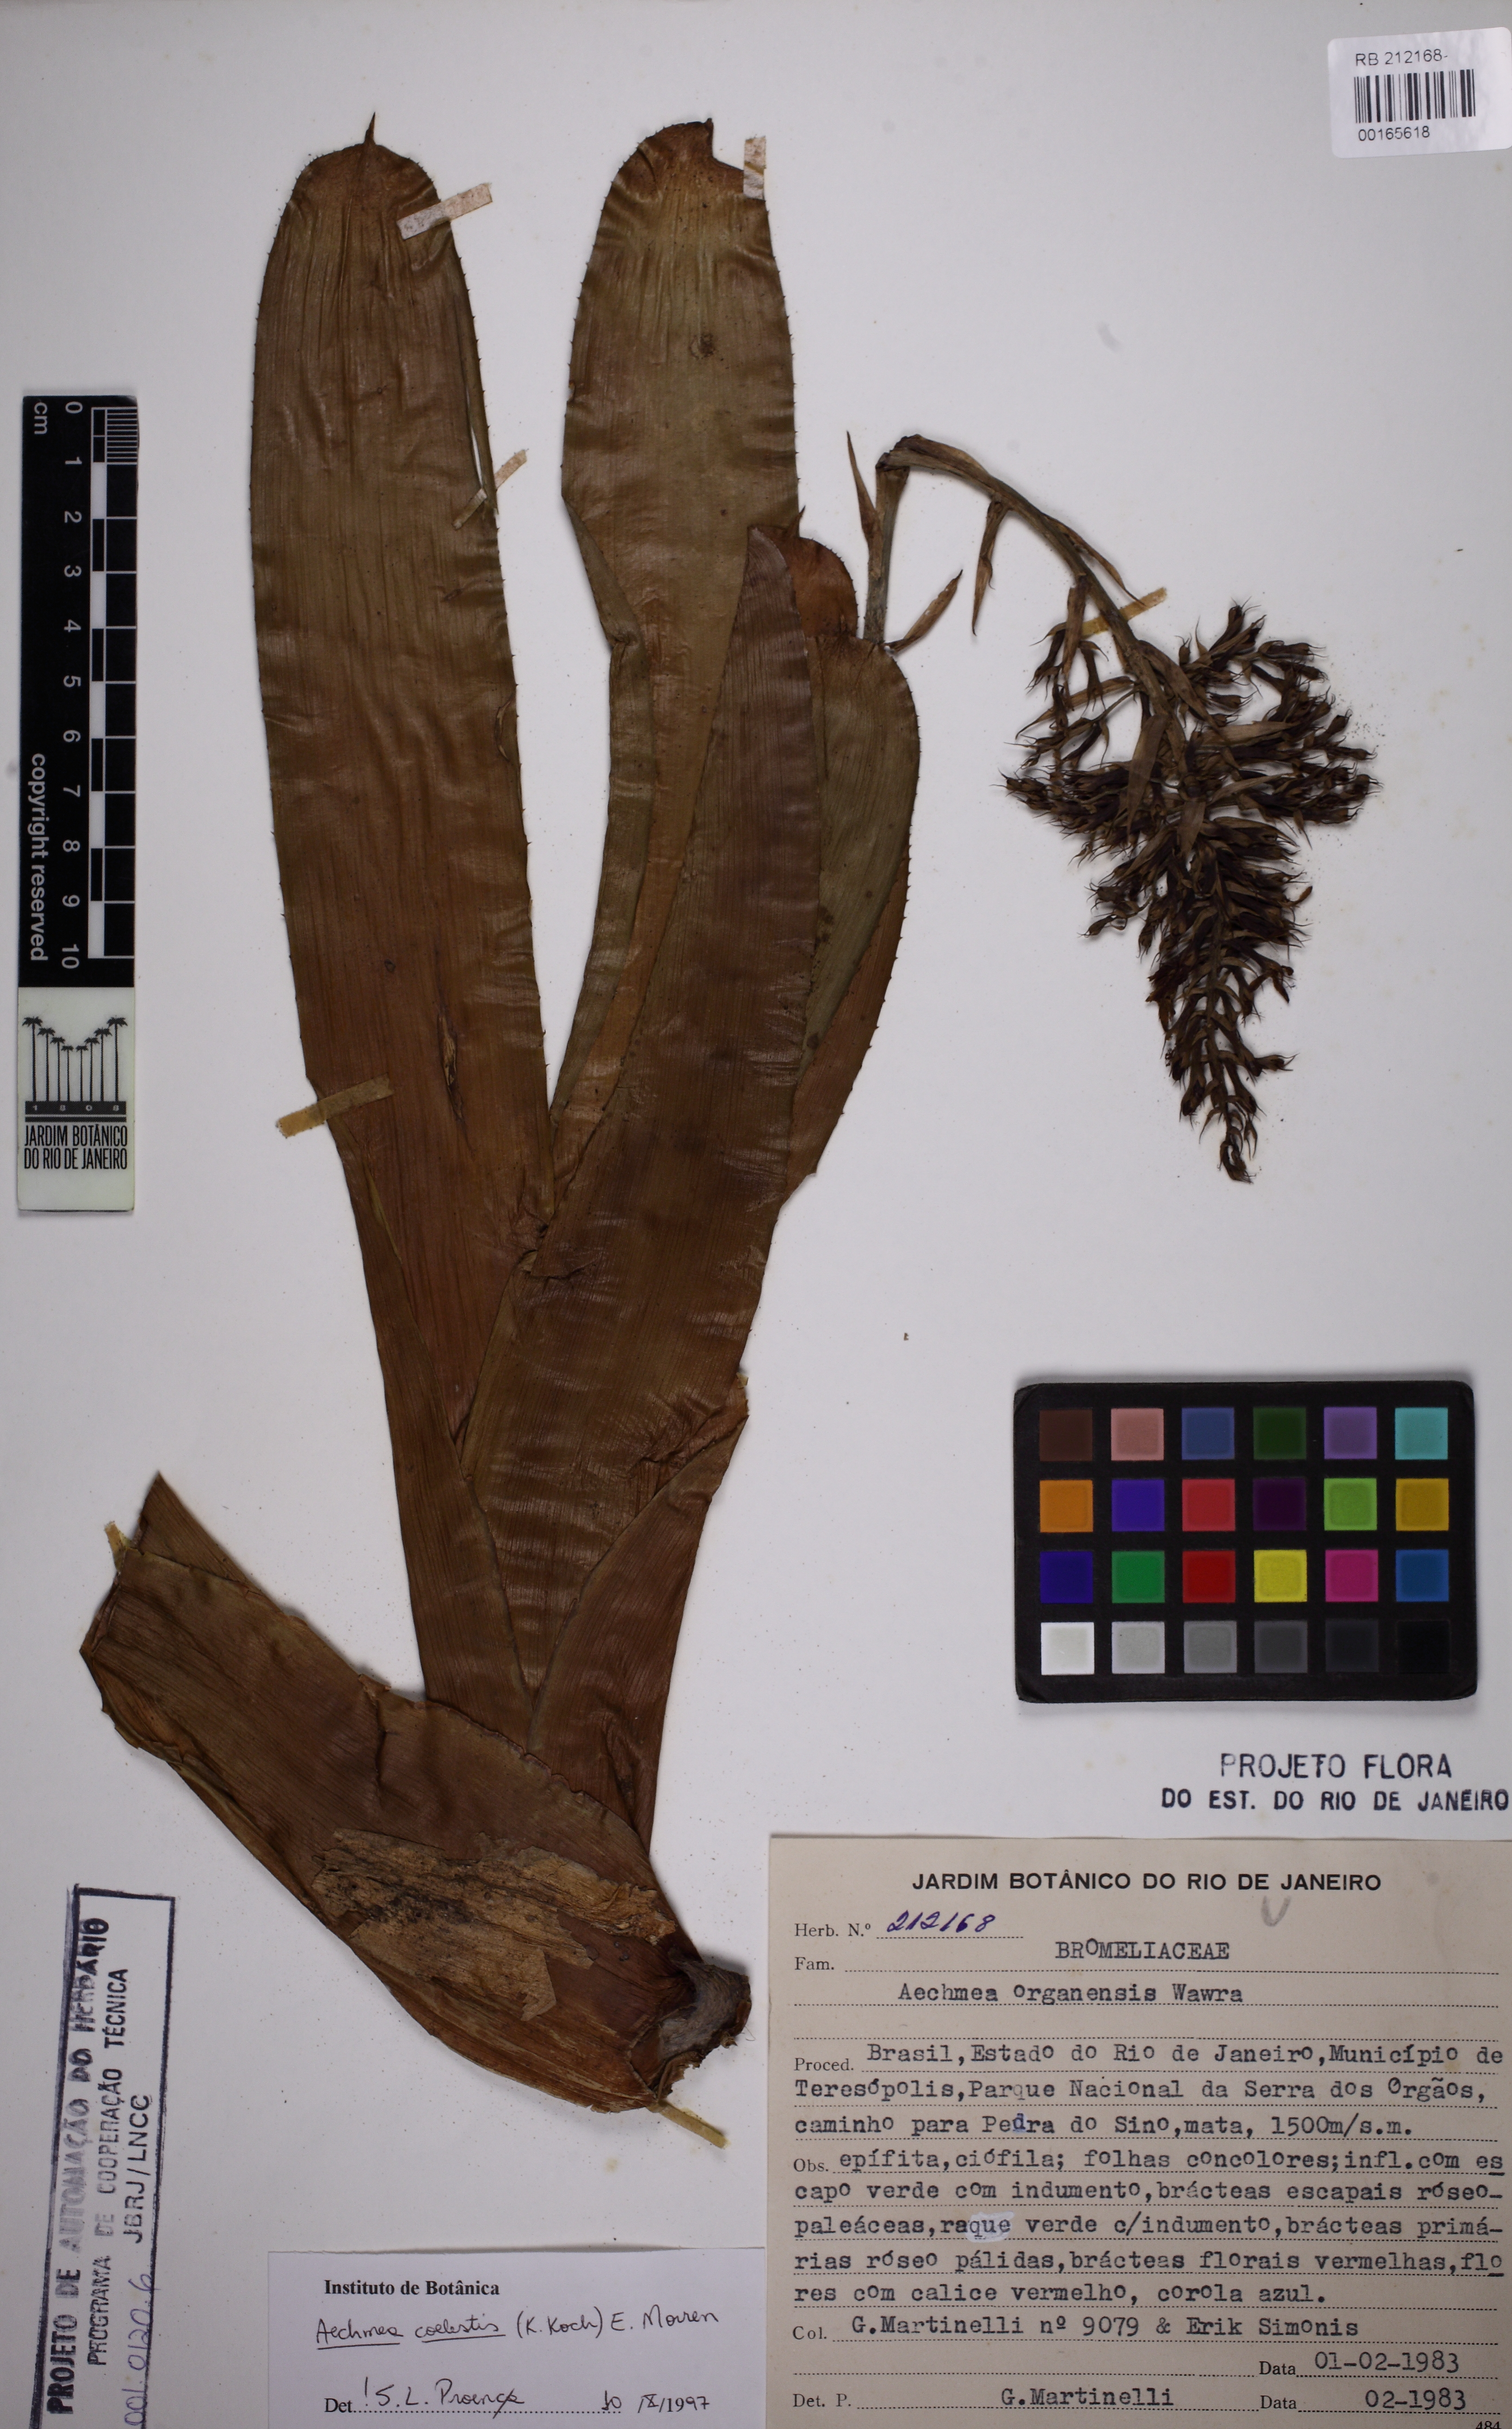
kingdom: Plantae
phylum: Tracheophyta
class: Liliopsida
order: Poales
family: Bromeliaceae
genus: Aechmea
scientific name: Aechmea organensis
